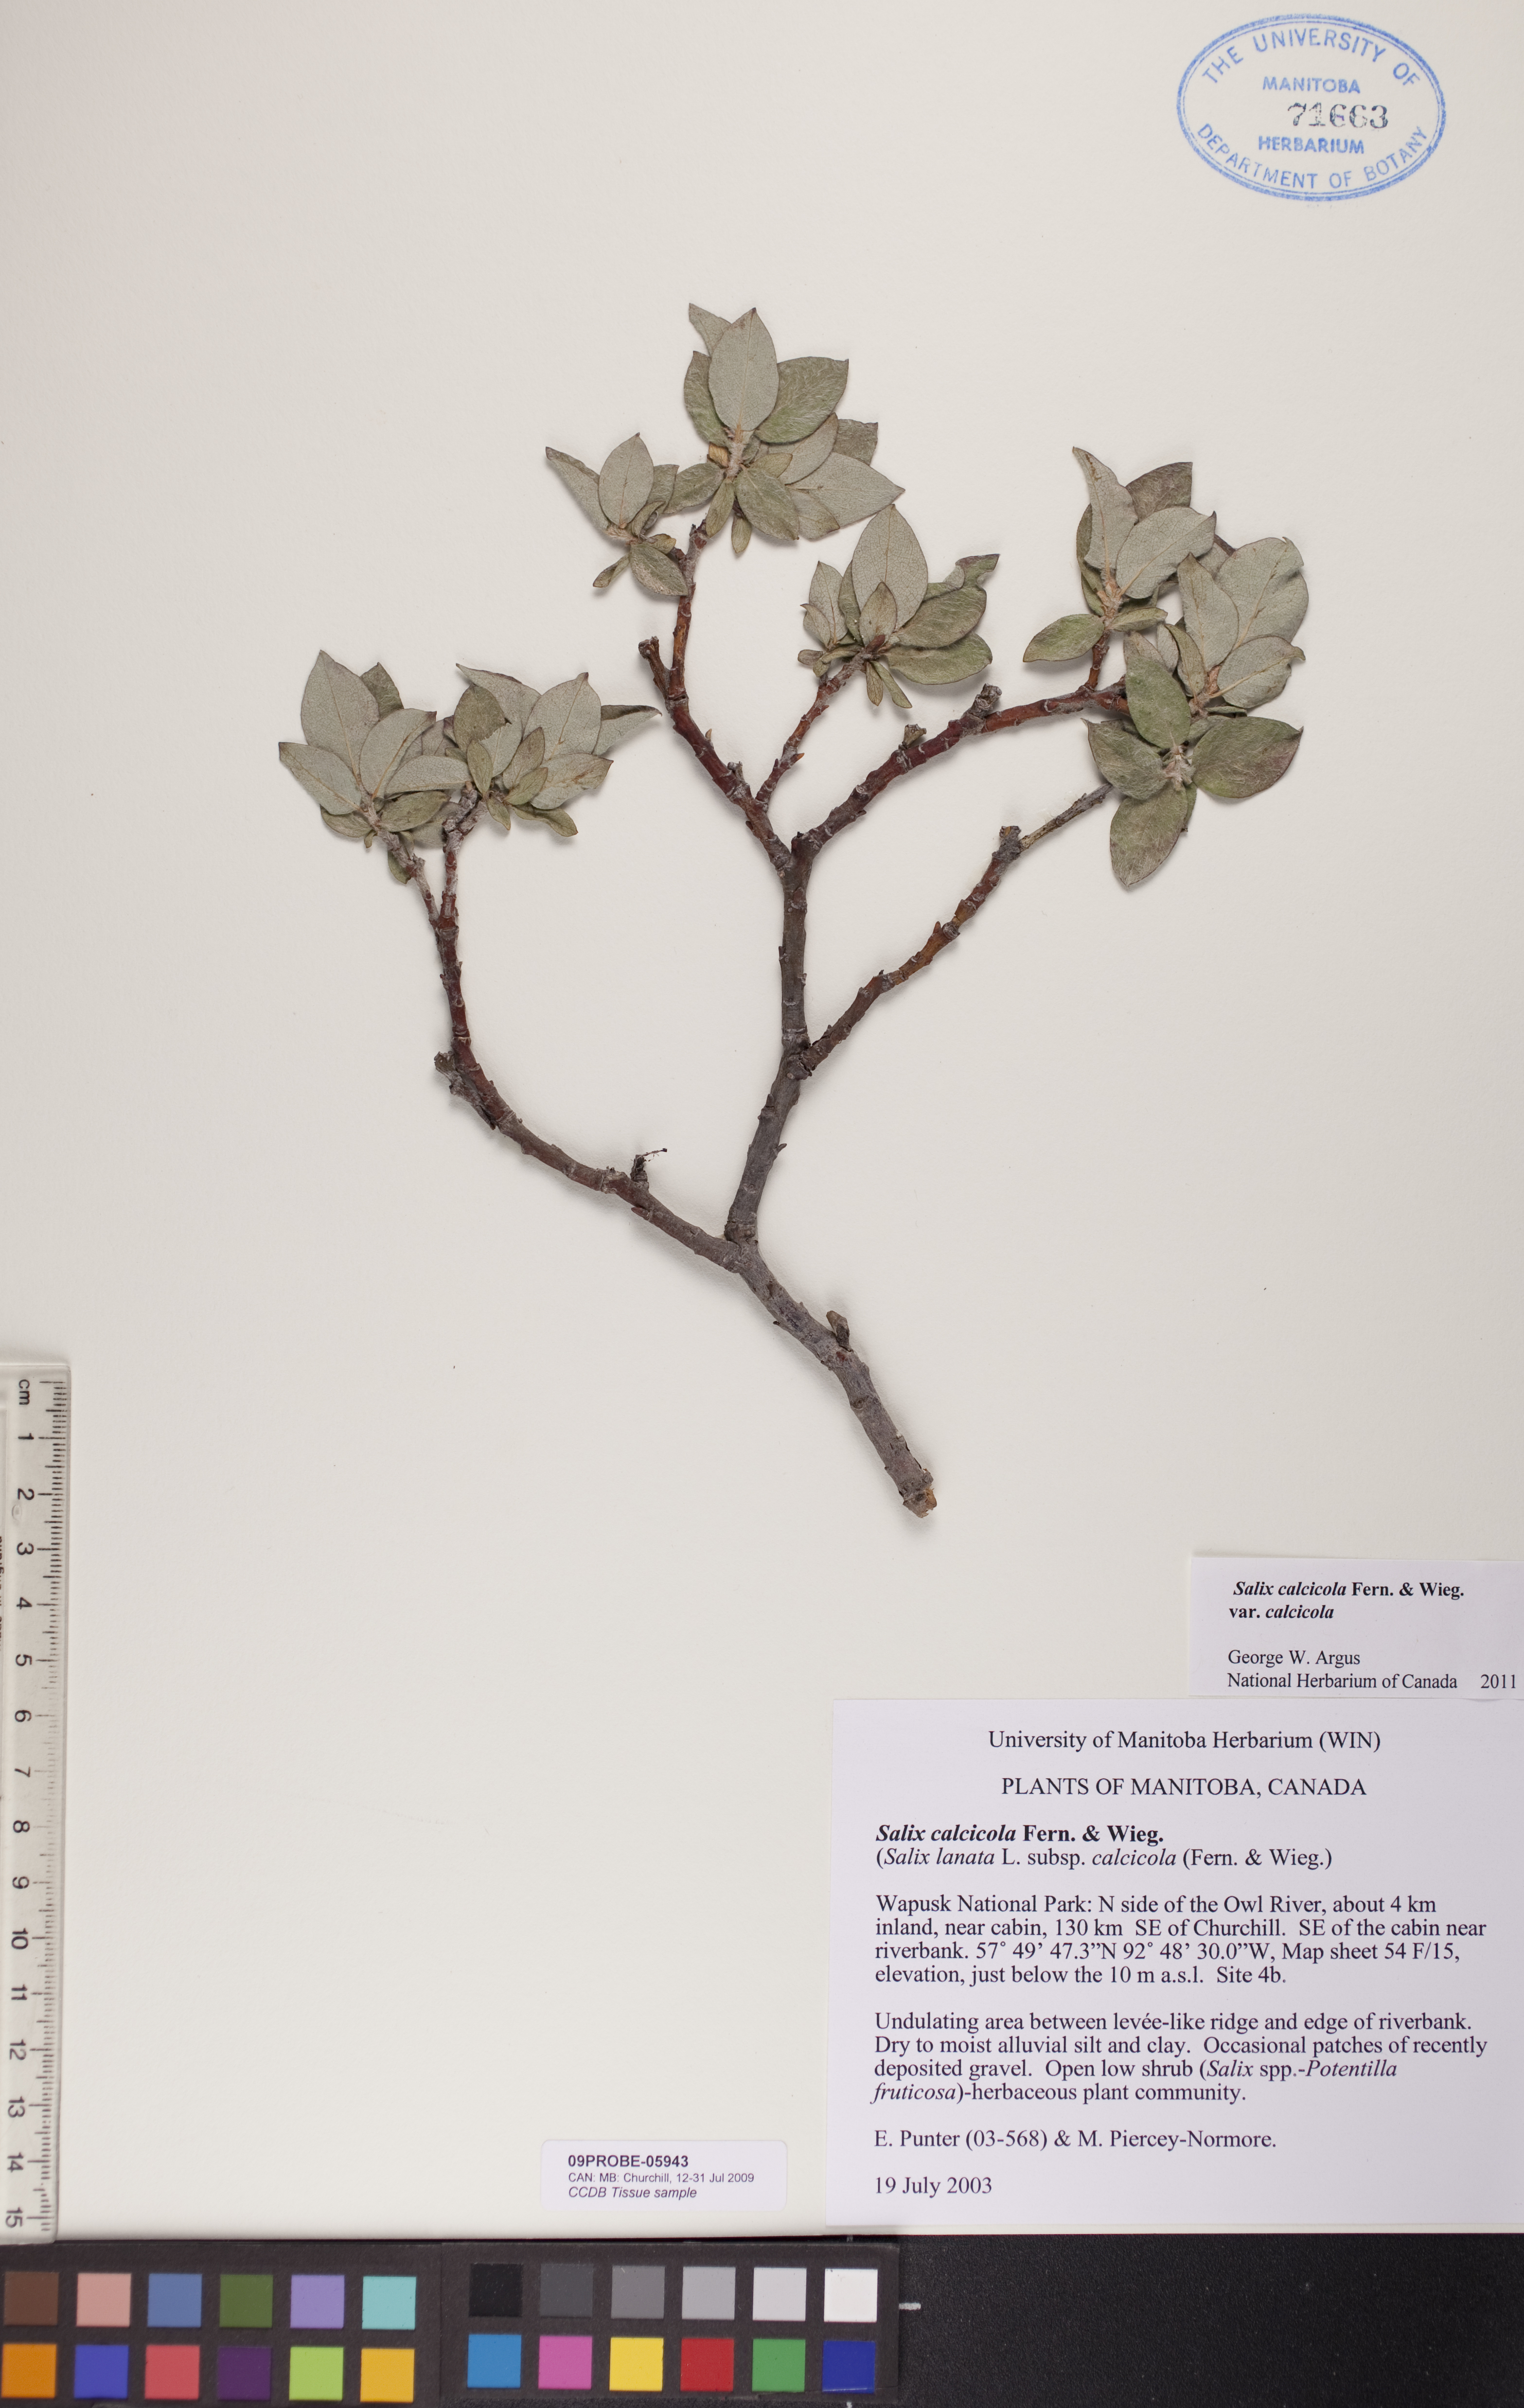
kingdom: Plantae
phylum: Tracheophyta
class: Magnoliopsida
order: Malpighiales
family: Salicaceae
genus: Salix
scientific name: Salix calcicola
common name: Calcareous willow
